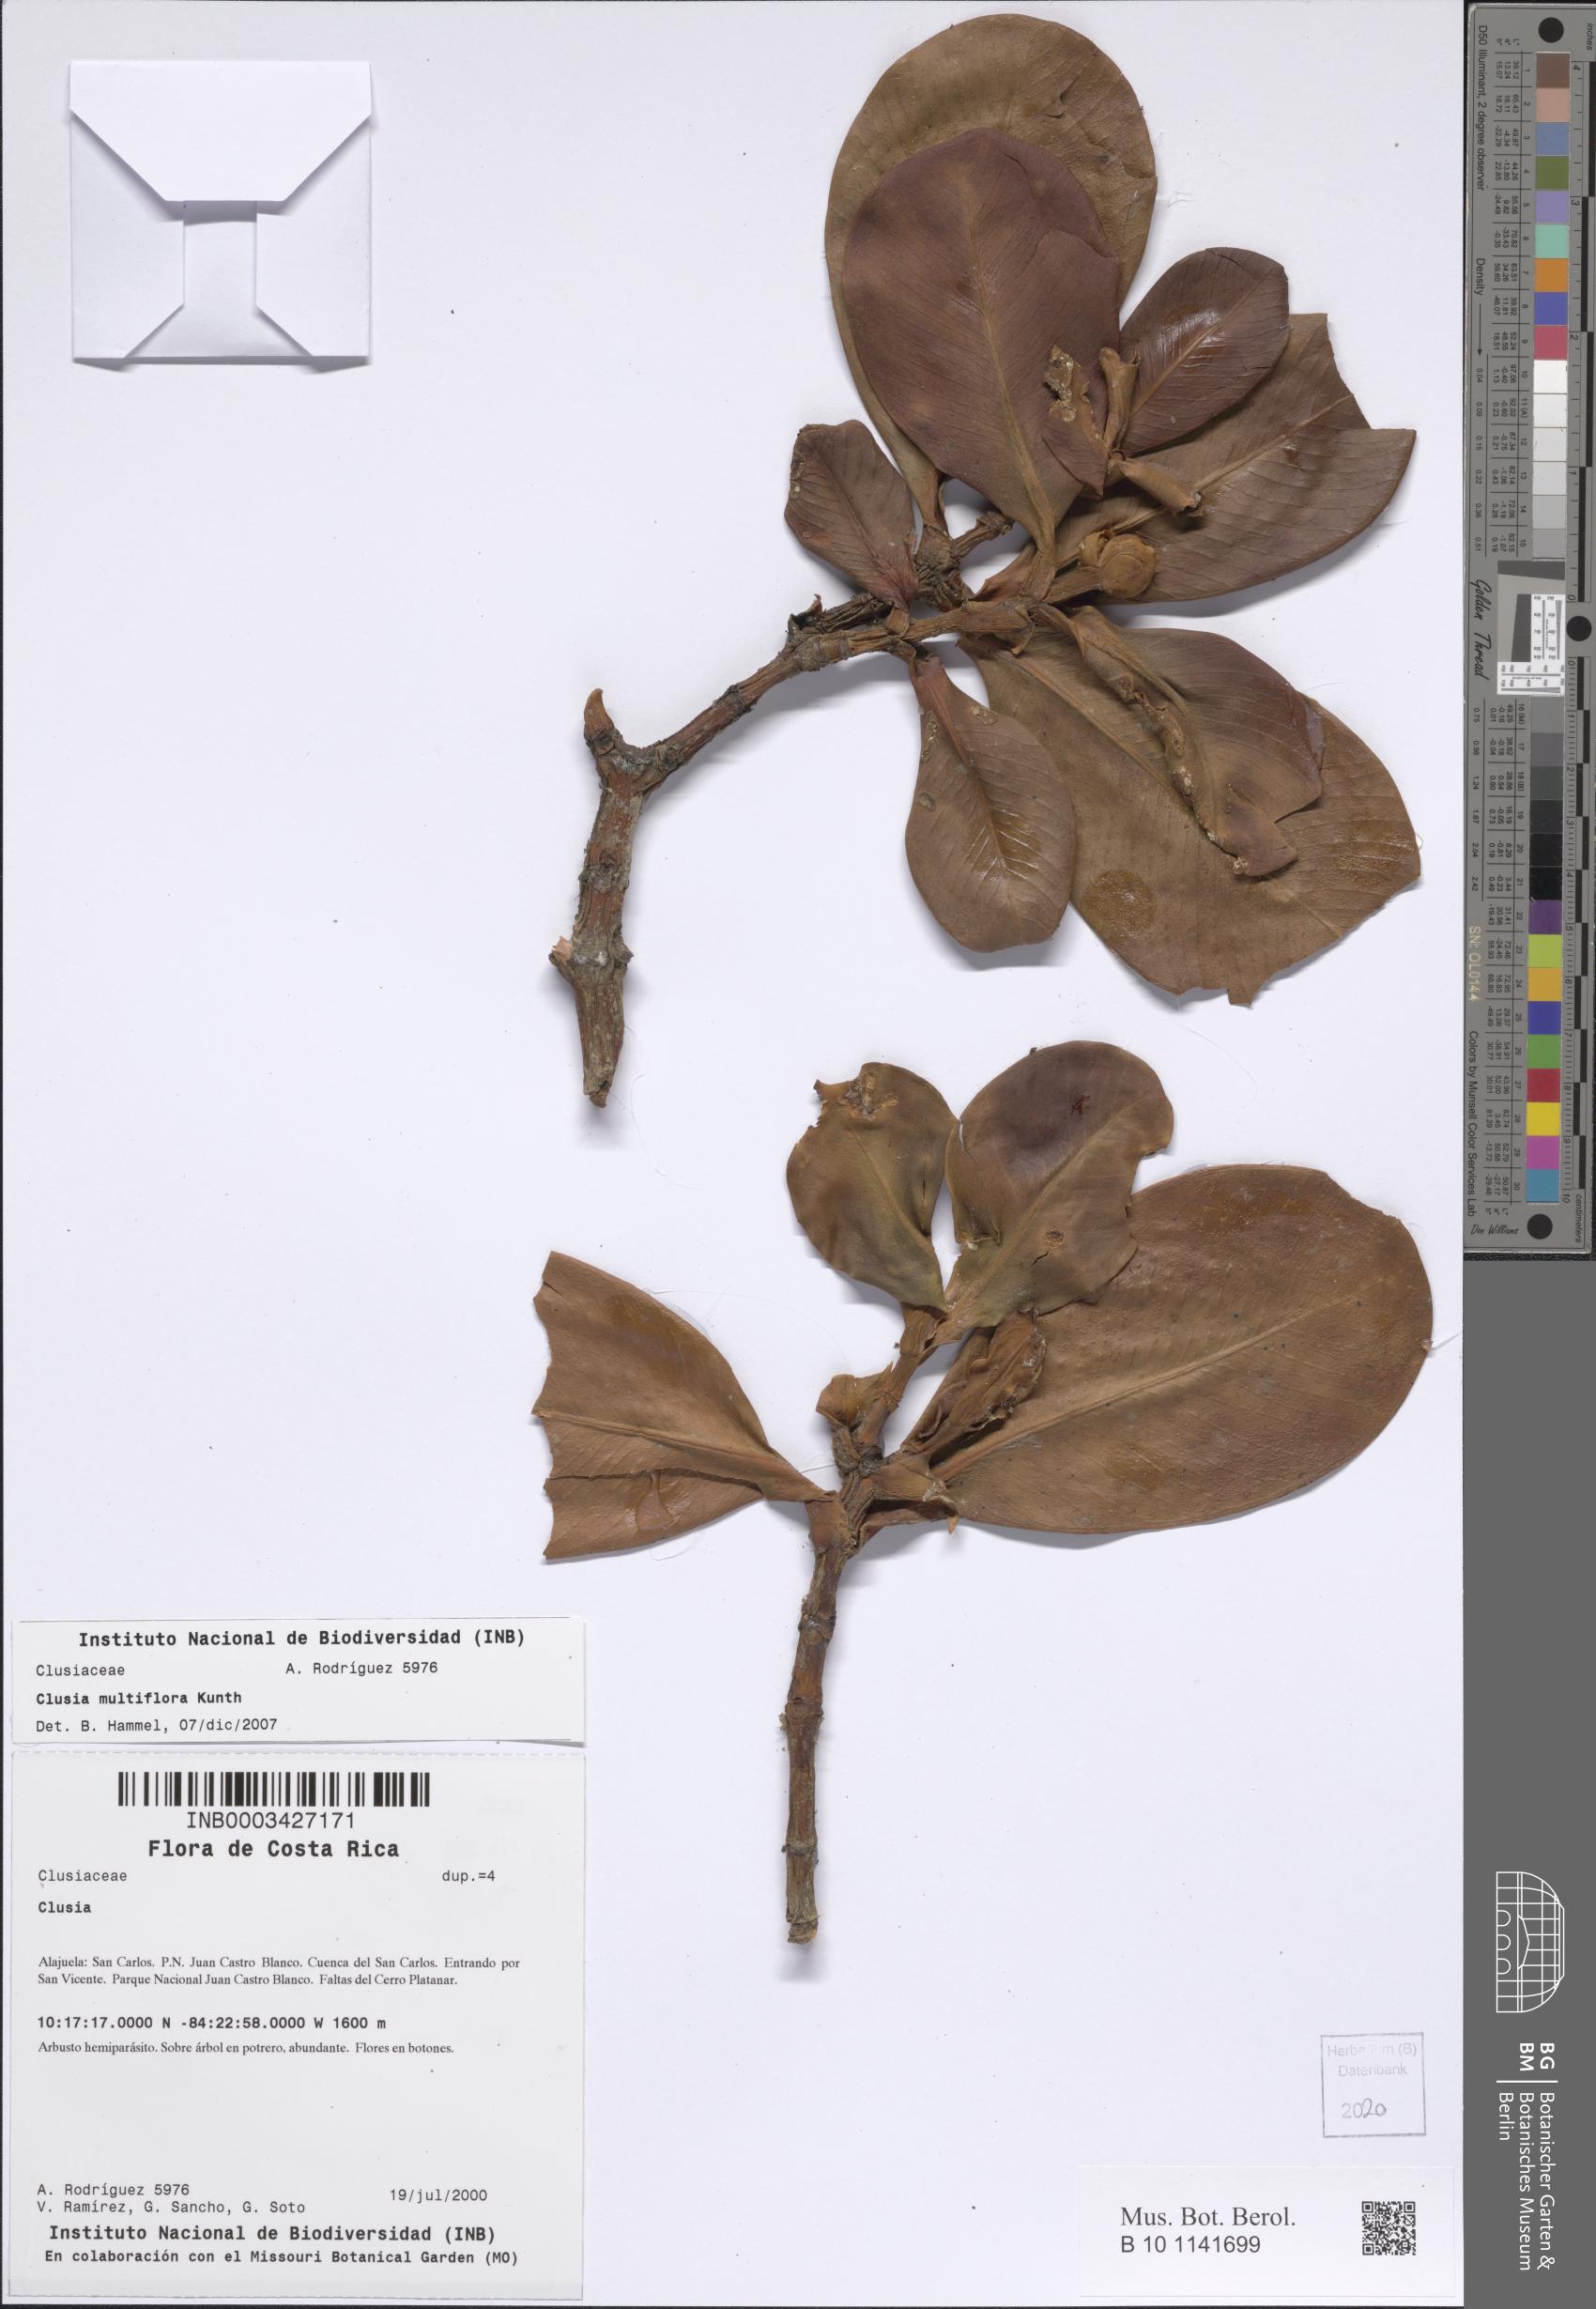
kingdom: Plantae
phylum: Tracheophyta
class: Magnoliopsida
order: Malpighiales
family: Clusiaceae
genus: Clusia
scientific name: Clusia multiflora
